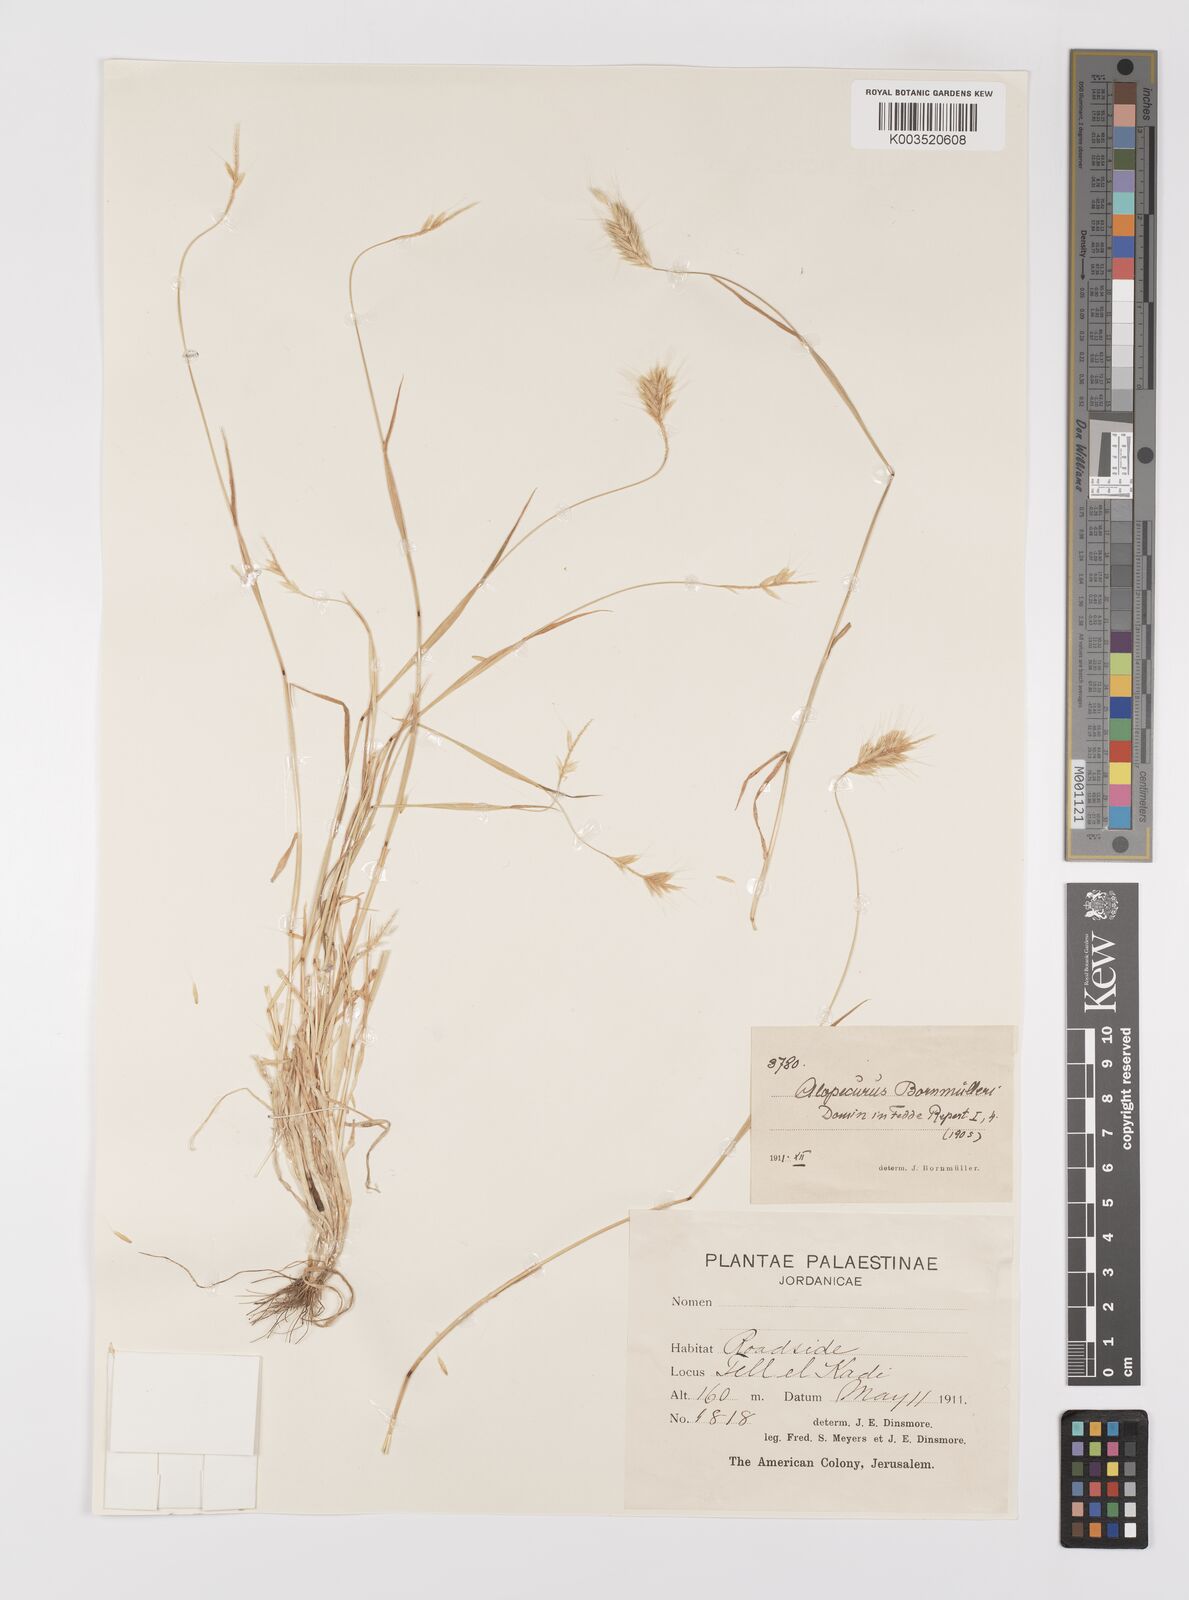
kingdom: Plantae
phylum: Tracheophyta
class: Liliopsida
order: Poales
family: Poaceae
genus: Alopecurus
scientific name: Alopecurus bornmuelleri
